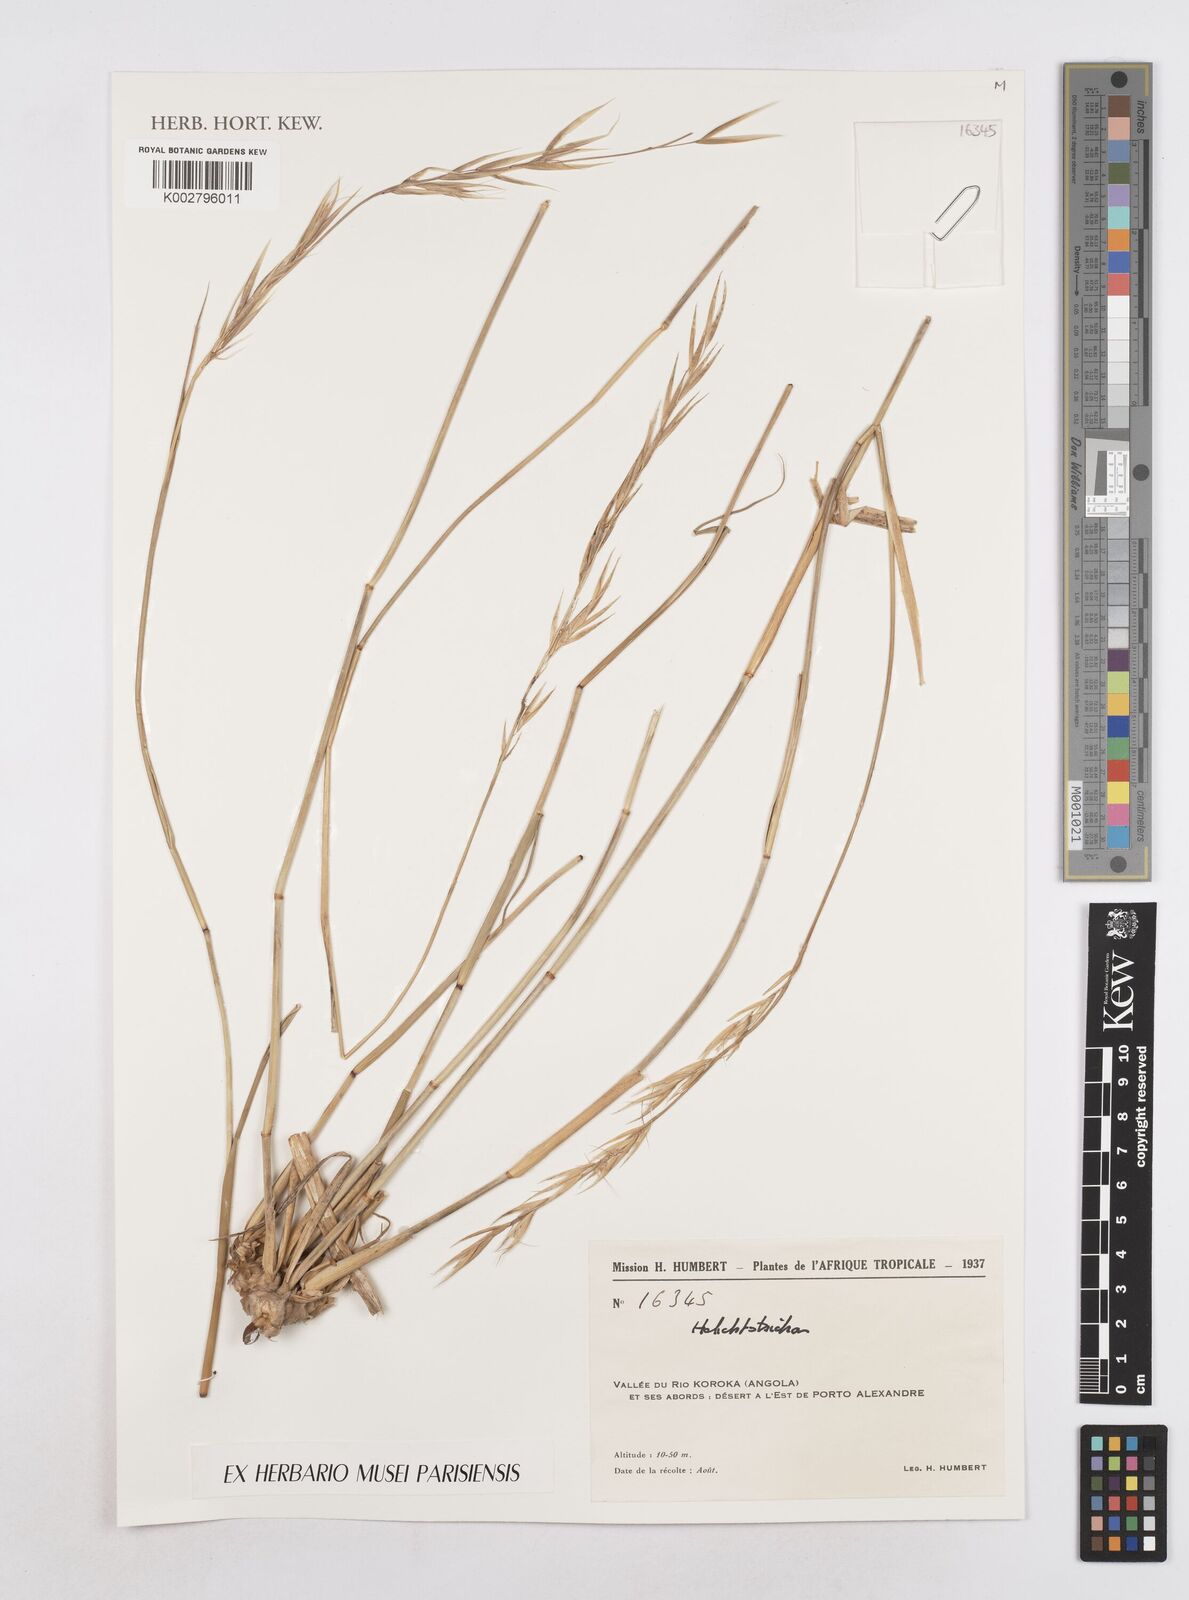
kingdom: Plantae
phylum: Tracheophyta
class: Liliopsida
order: Poales
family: Poaceae
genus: Helictotrichon
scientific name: Helictotrichon
